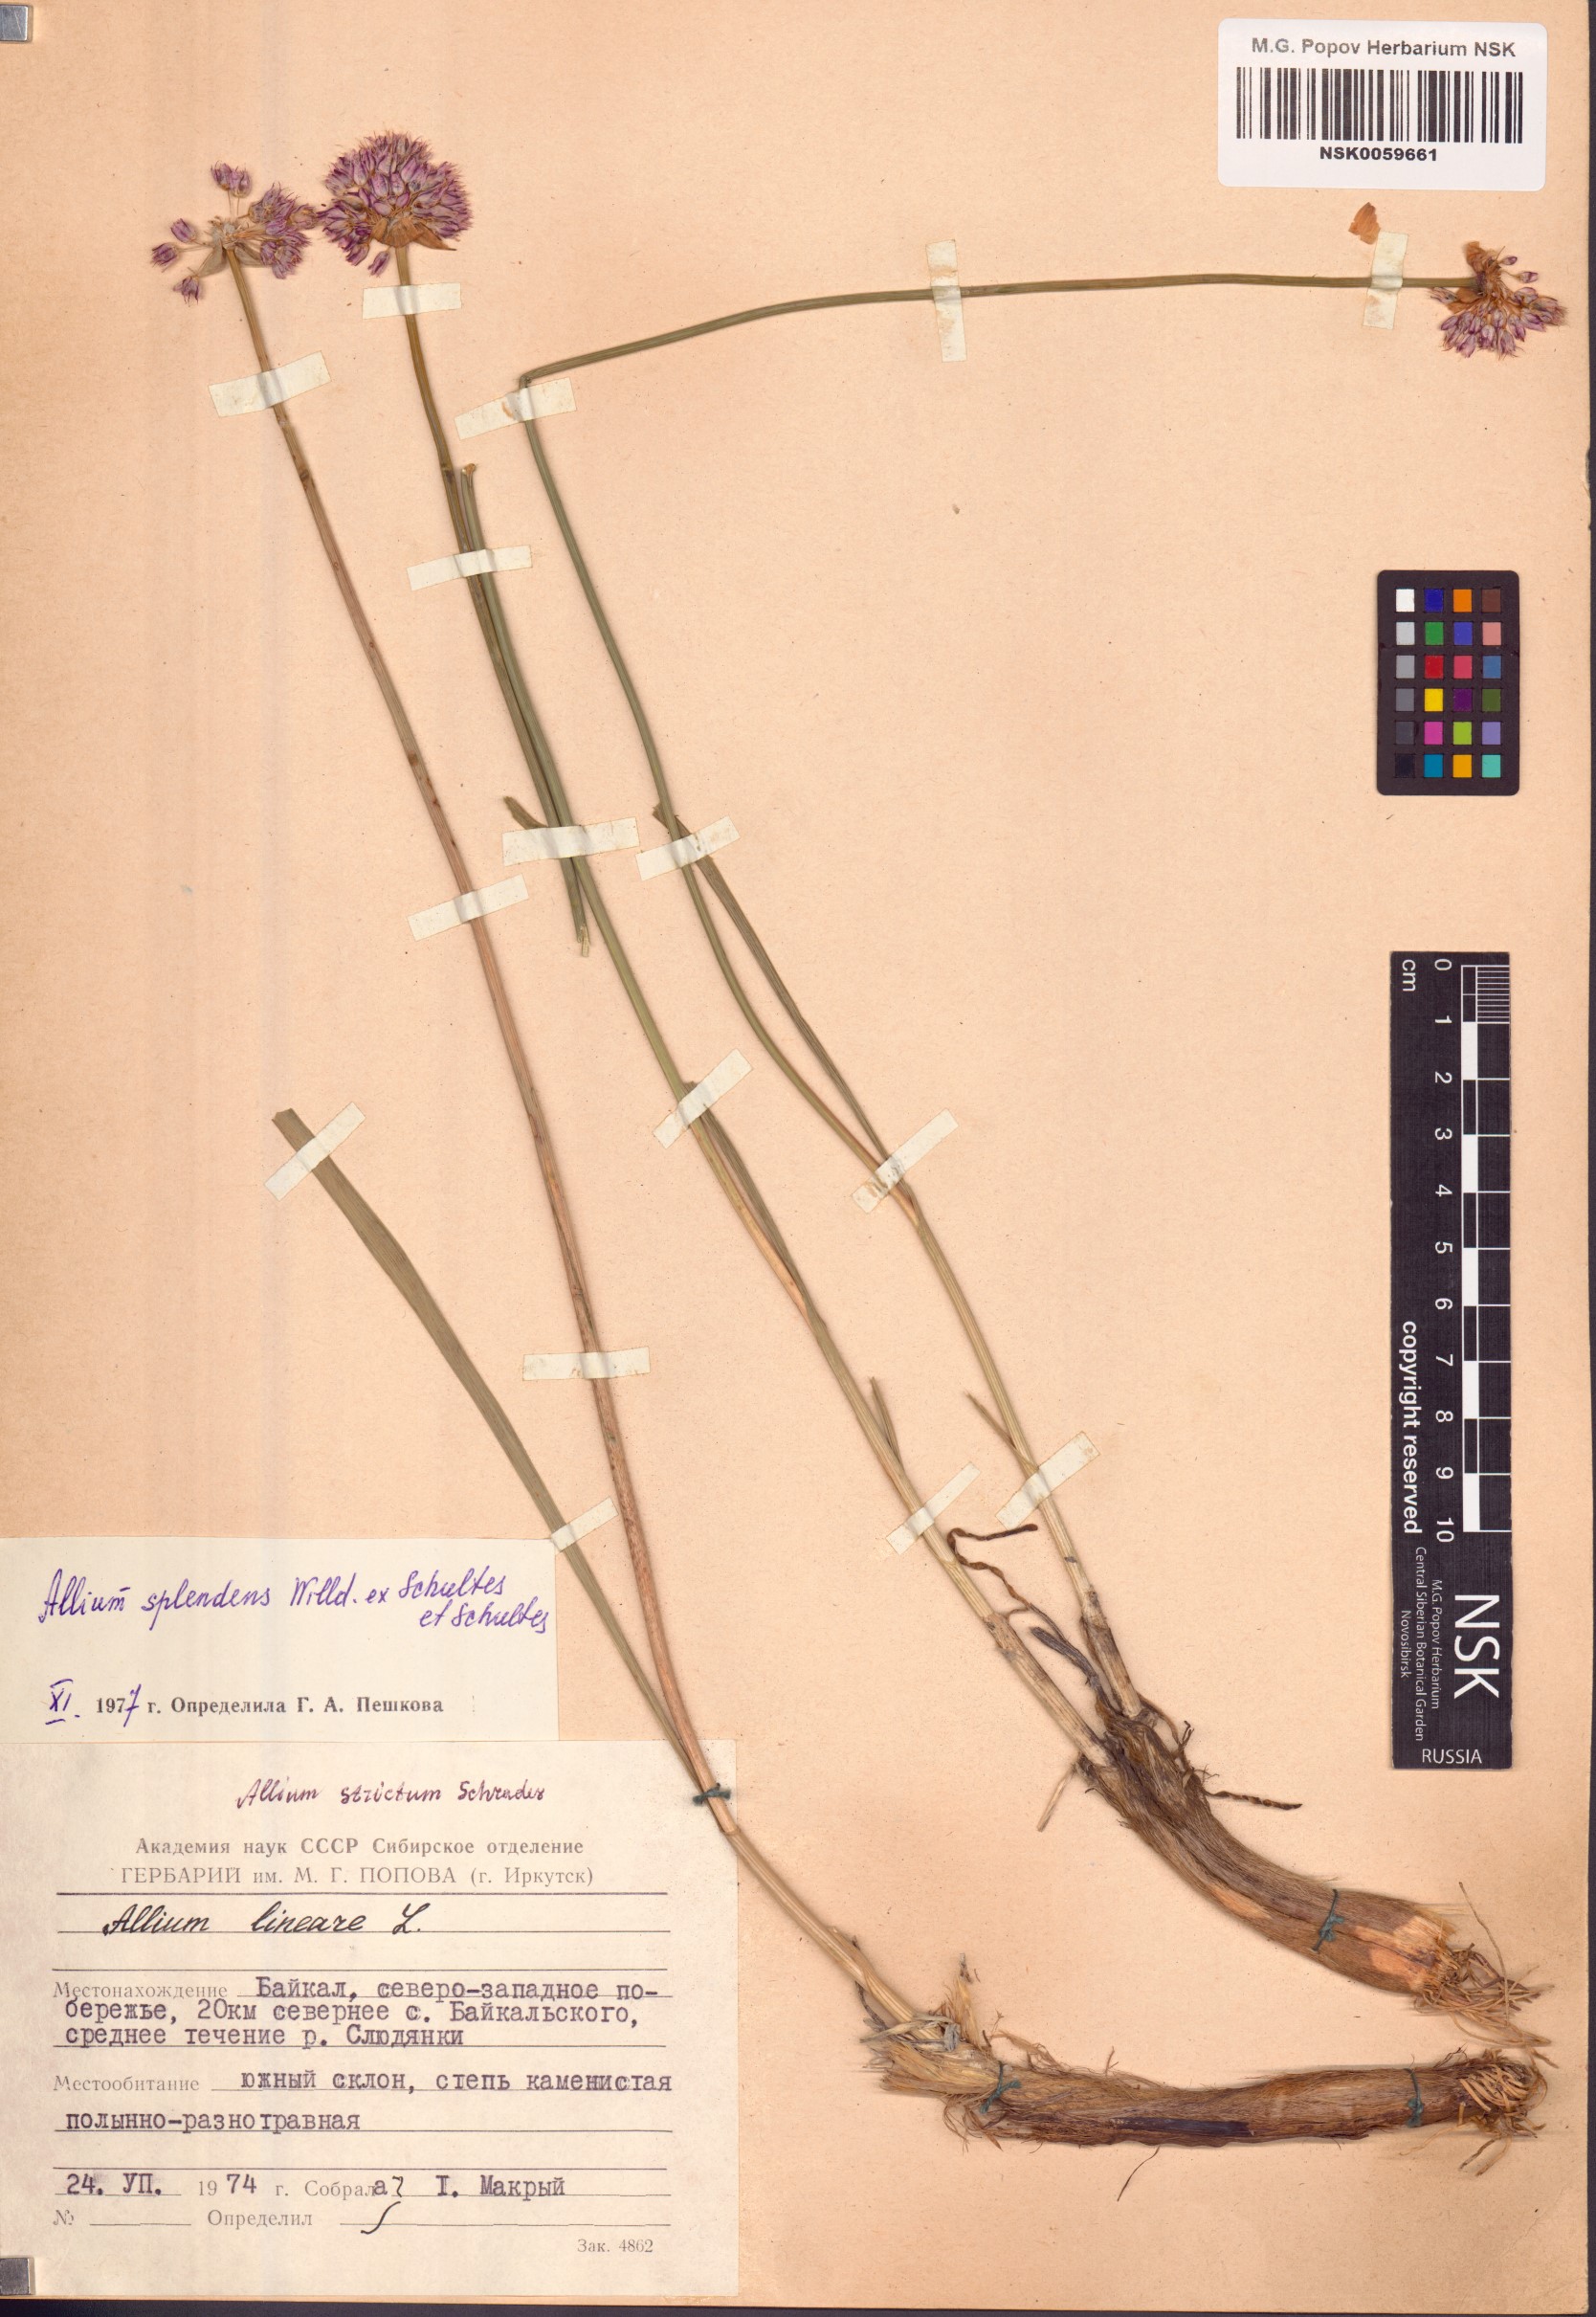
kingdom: Plantae
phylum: Tracheophyta
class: Liliopsida
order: Asparagales
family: Amaryllidaceae
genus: Allium
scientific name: Allium splendens
